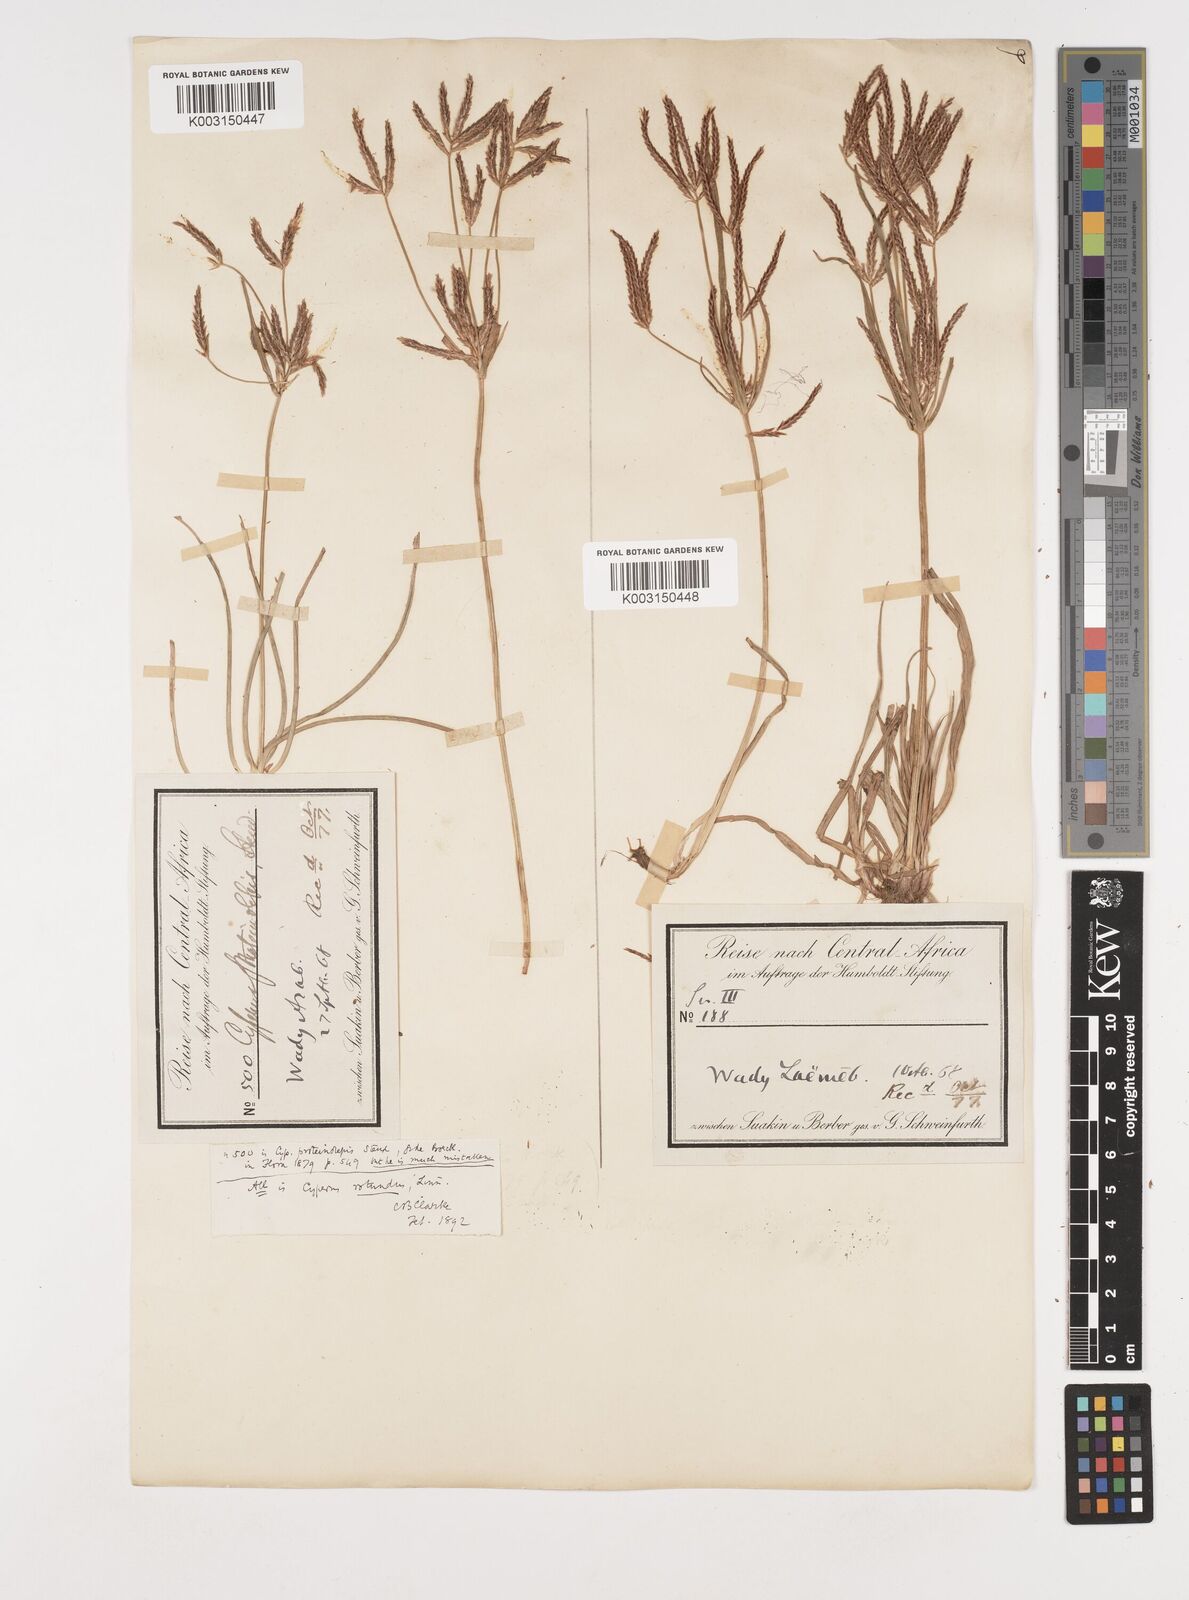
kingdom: Plantae
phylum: Tracheophyta
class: Liliopsida
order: Poales
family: Cyperaceae
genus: Cyperus
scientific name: Cyperus rotundus
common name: Nutgrass
